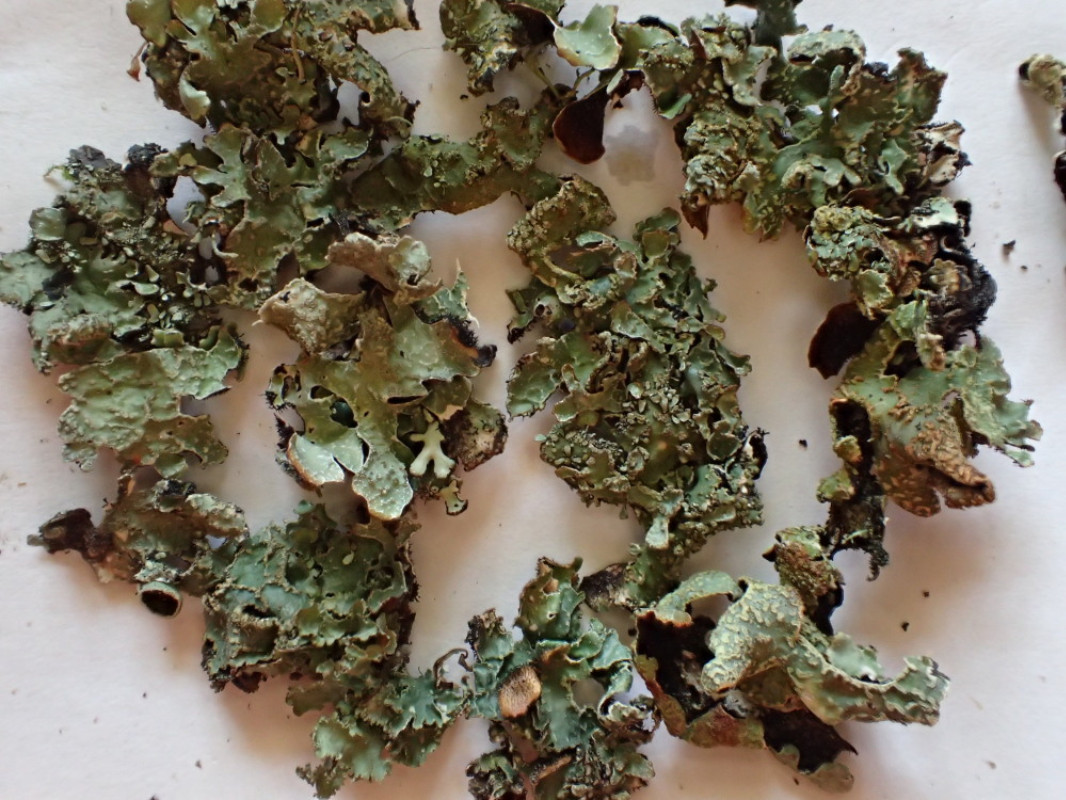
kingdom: Fungi
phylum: Ascomycota
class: Lecanoromycetes
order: Lecanorales
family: Parmeliaceae
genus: Parmelia
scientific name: Parmelia sulcata
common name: rynket skållav
